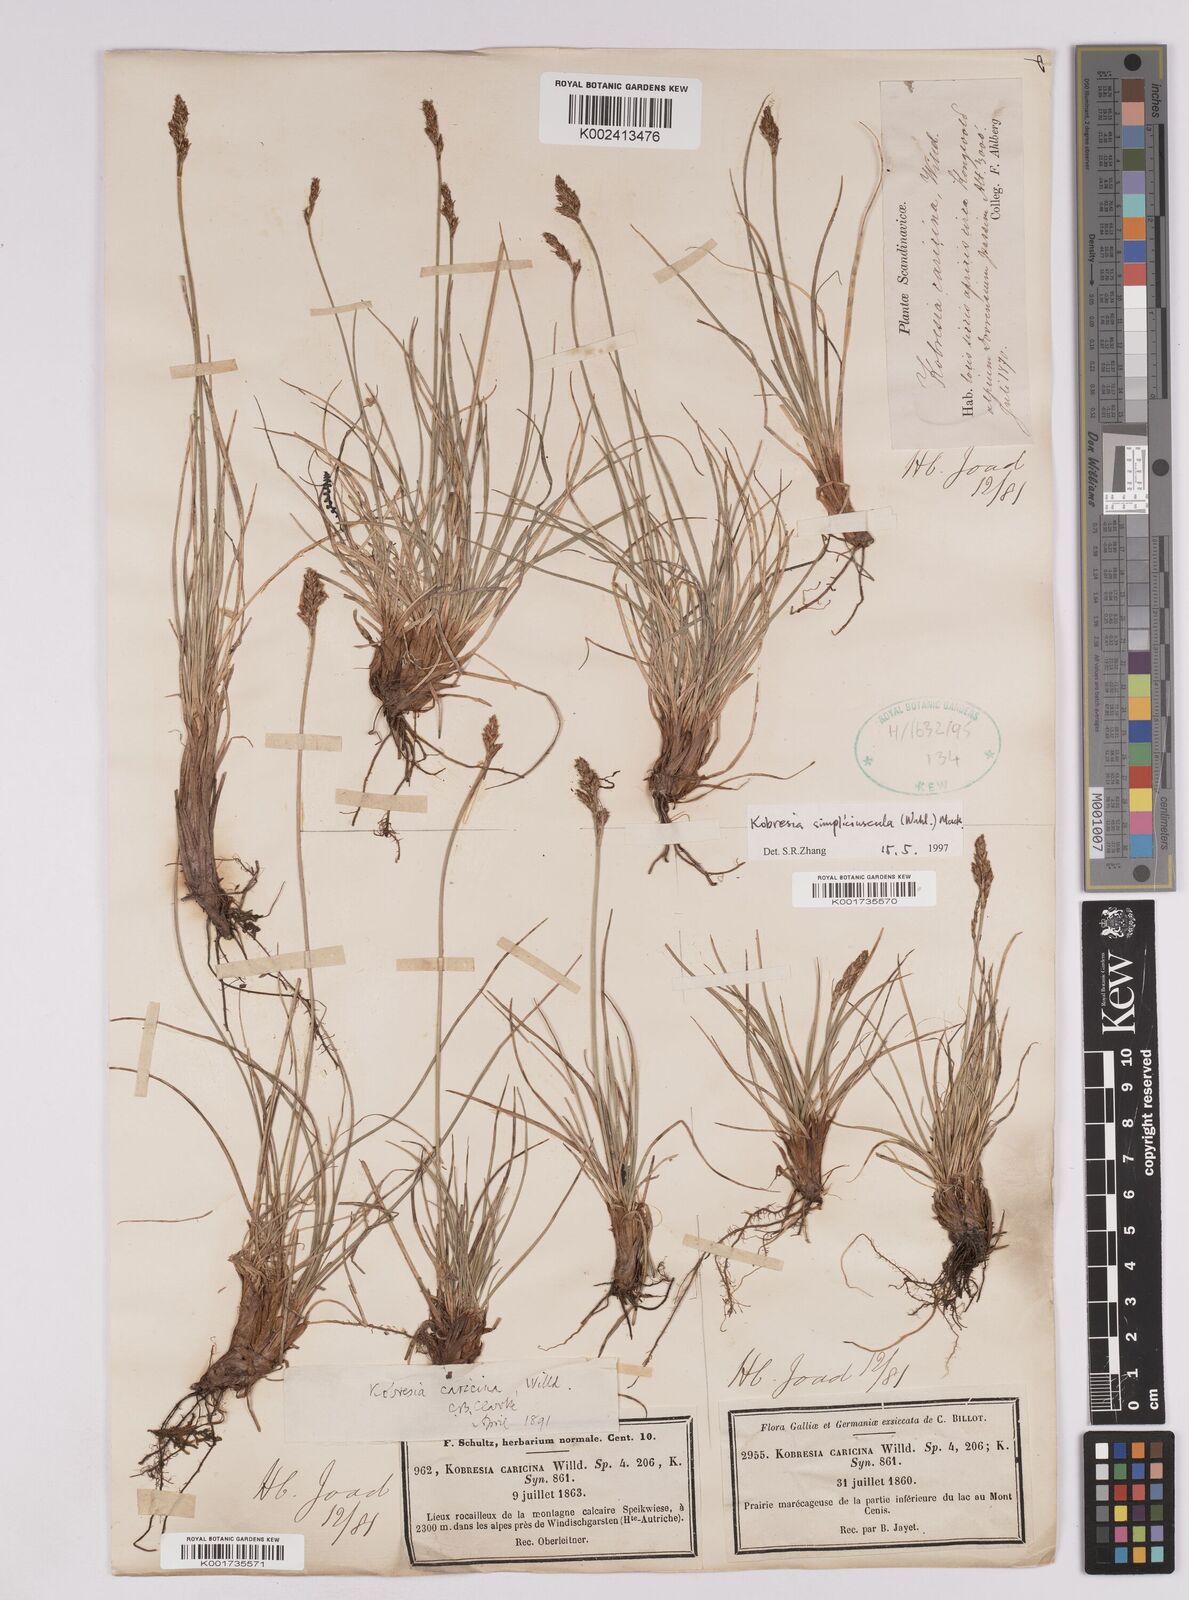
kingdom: Plantae
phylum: Tracheophyta
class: Liliopsida
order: Poales
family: Cyperaceae
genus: Carex
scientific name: Carex simpliciuscula
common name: Simple bog sedge
